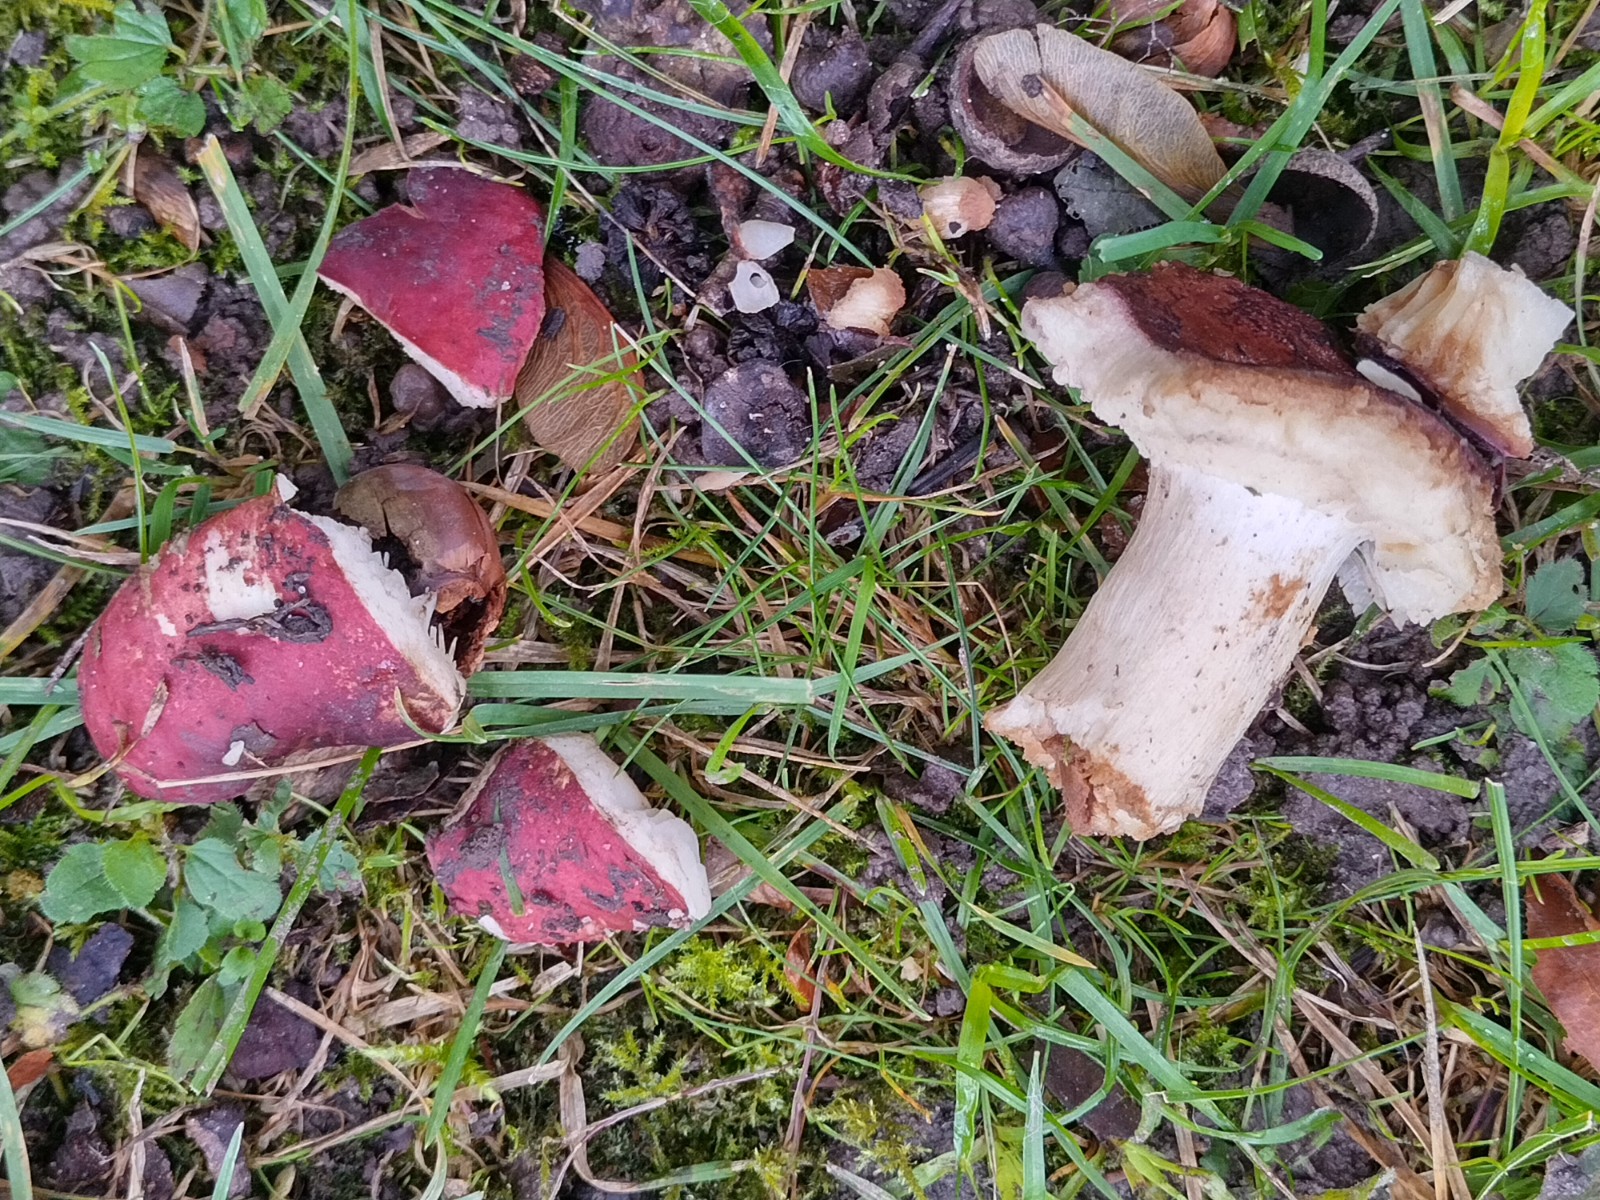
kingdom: Fungi
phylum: Basidiomycota
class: Agaricomycetes
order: Russulales
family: Russulaceae
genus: Russula
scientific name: Russula graveolens
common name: bugtet skørhat
